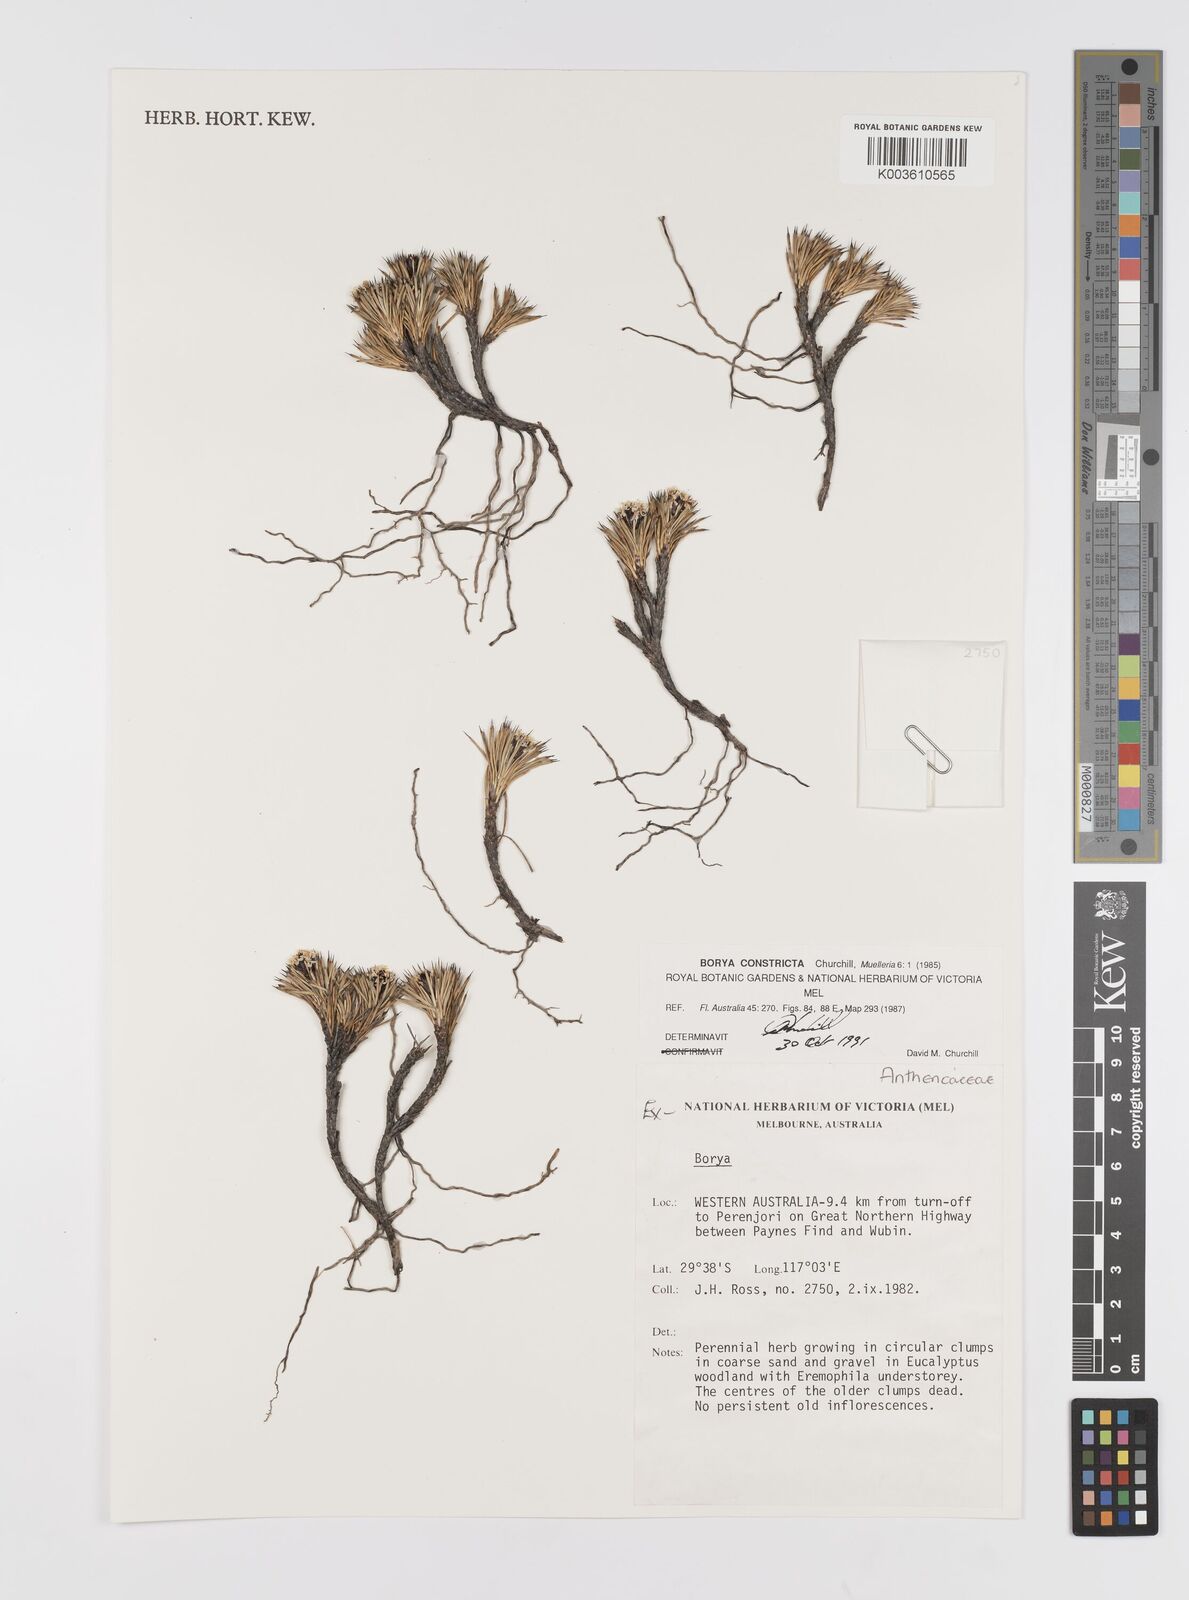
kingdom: Plantae
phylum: Tracheophyta
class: Liliopsida
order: Asparagales
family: Boryaceae
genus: Borya
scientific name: Borya
